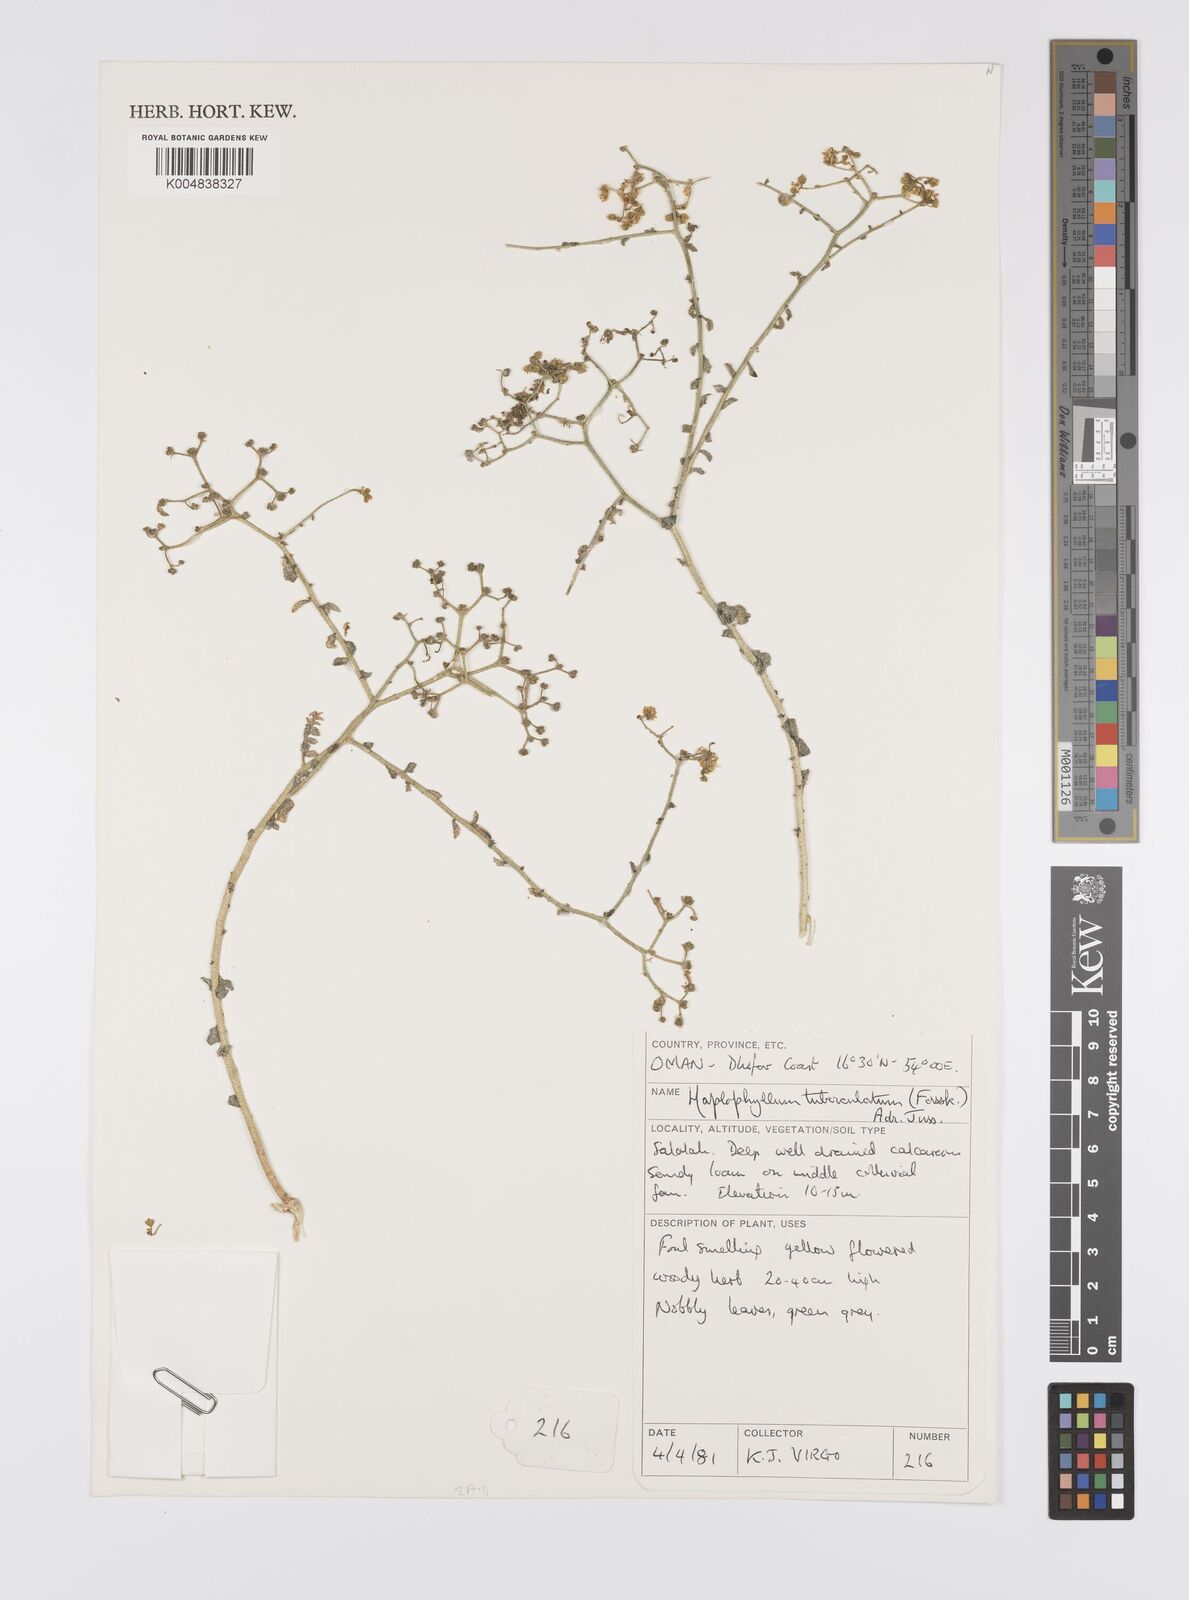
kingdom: Plantae
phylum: Tracheophyta
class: Magnoliopsida
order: Sapindales
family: Rutaceae
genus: Haplophyllum
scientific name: Haplophyllum tuberculatum
